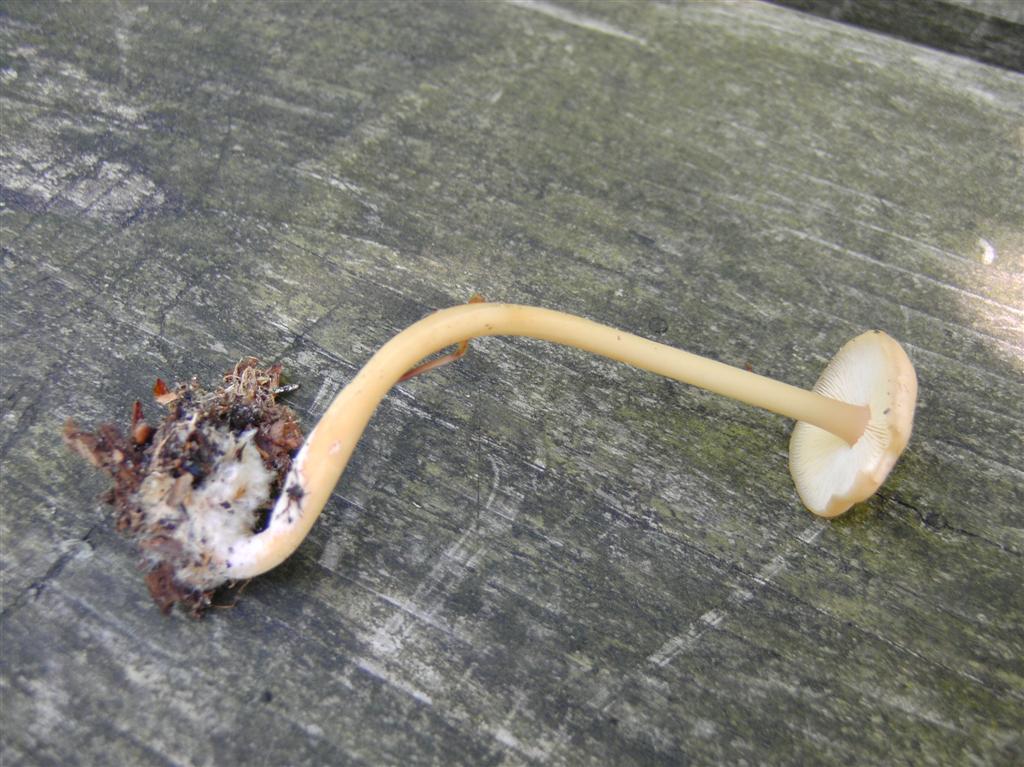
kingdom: Fungi
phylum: Basidiomycota
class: Agaricomycetes
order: Agaricales
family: Omphalotaceae
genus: Gymnopus
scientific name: Gymnopus aquosus
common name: bleg fladhat
